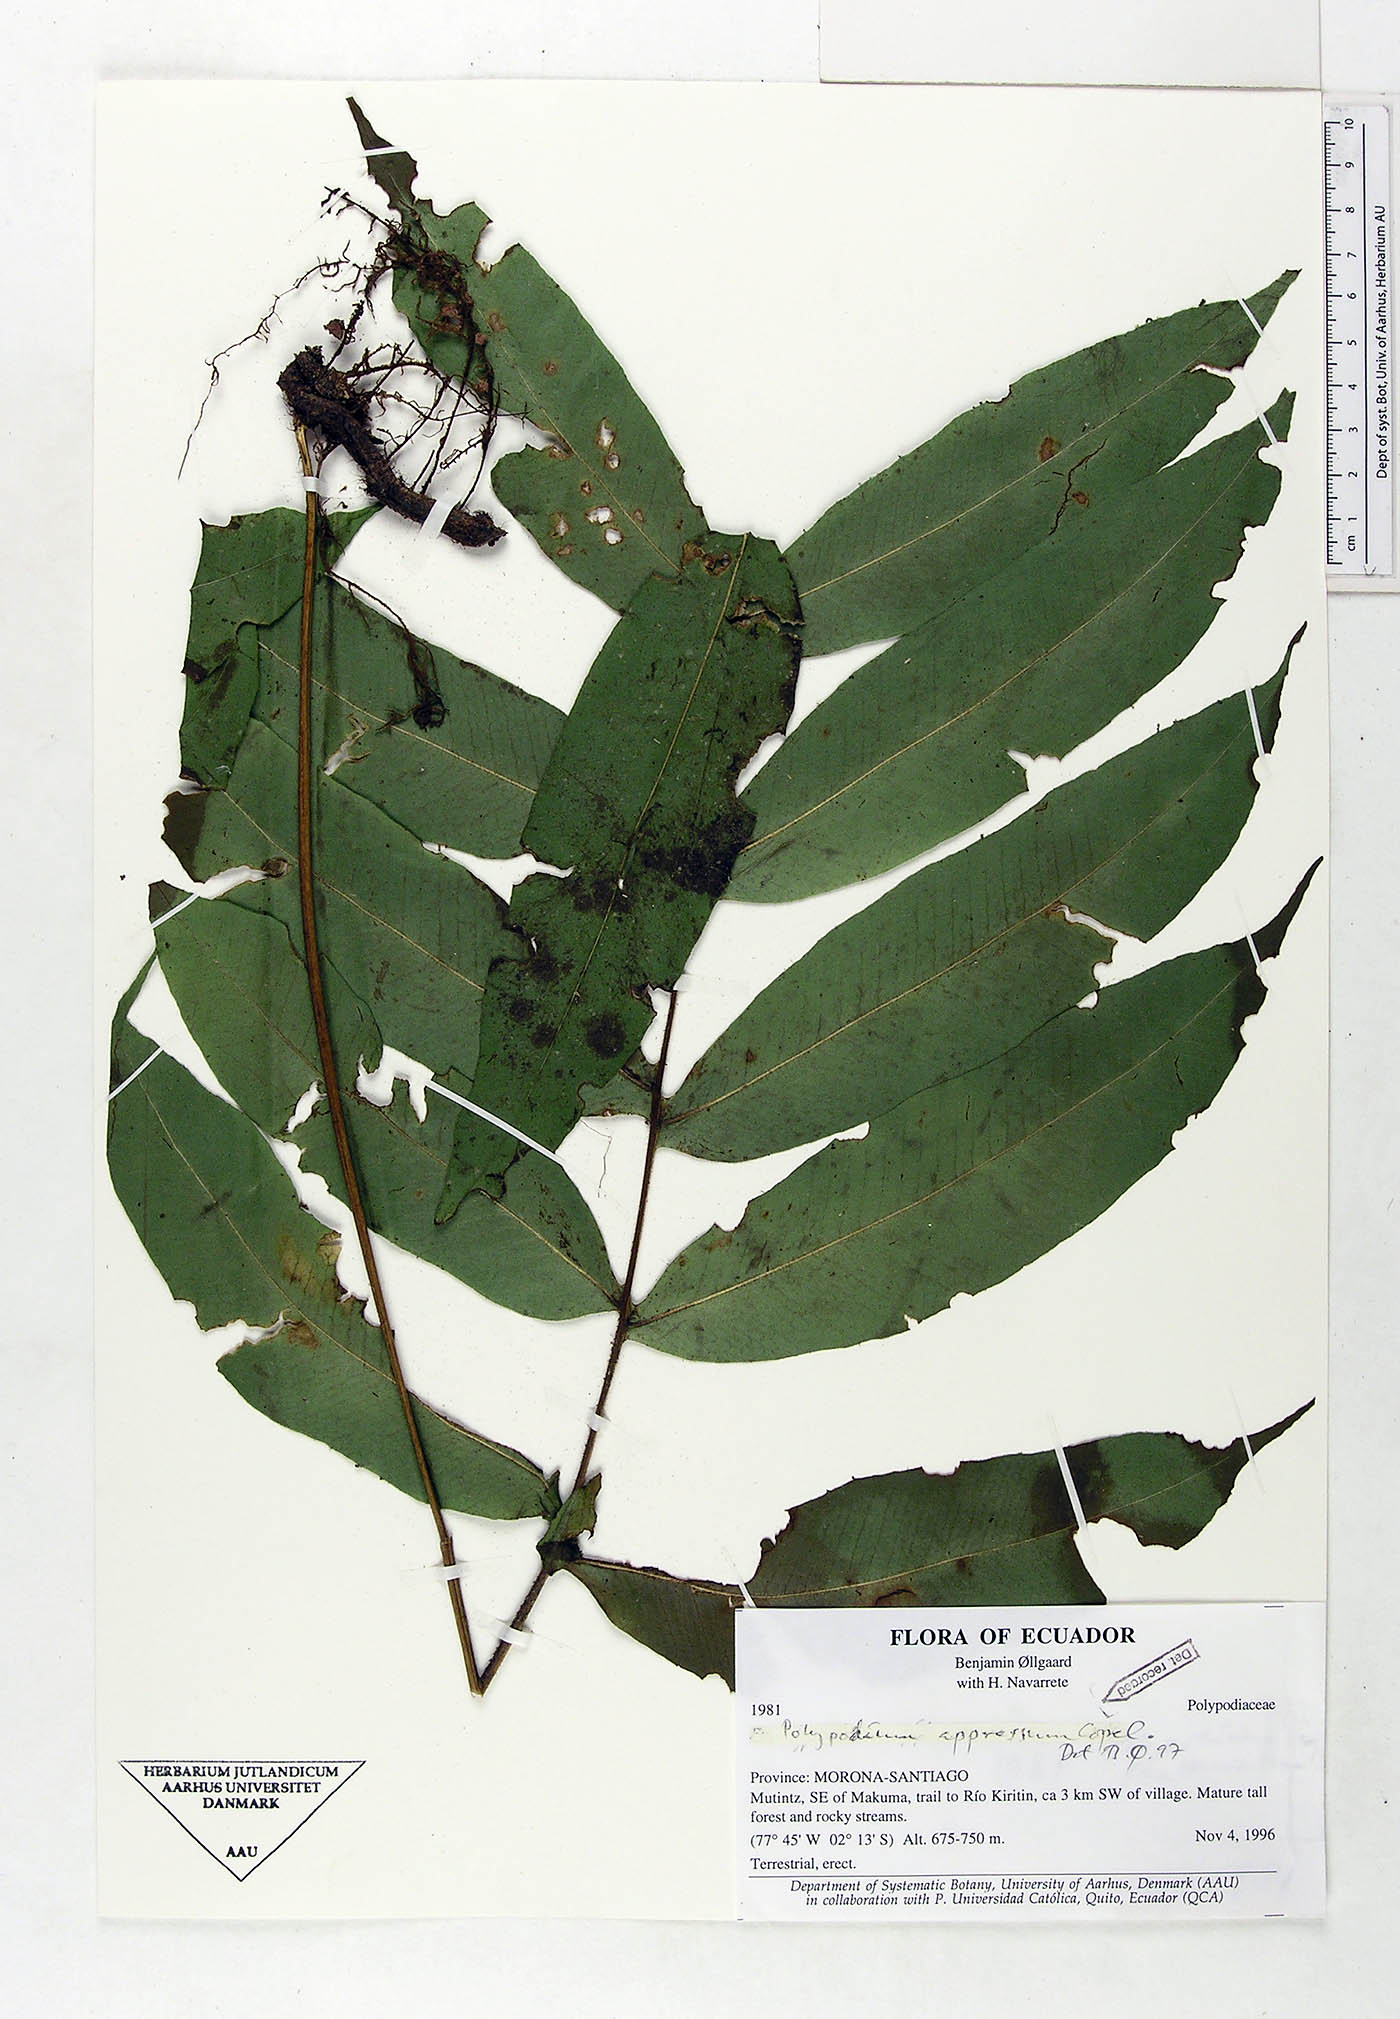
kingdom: Plantae
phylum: Tracheophyta
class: Polypodiopsida
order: Polypodiales
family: Polypodiaceae
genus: Serpocaulon
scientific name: Serpocaulon appressum
